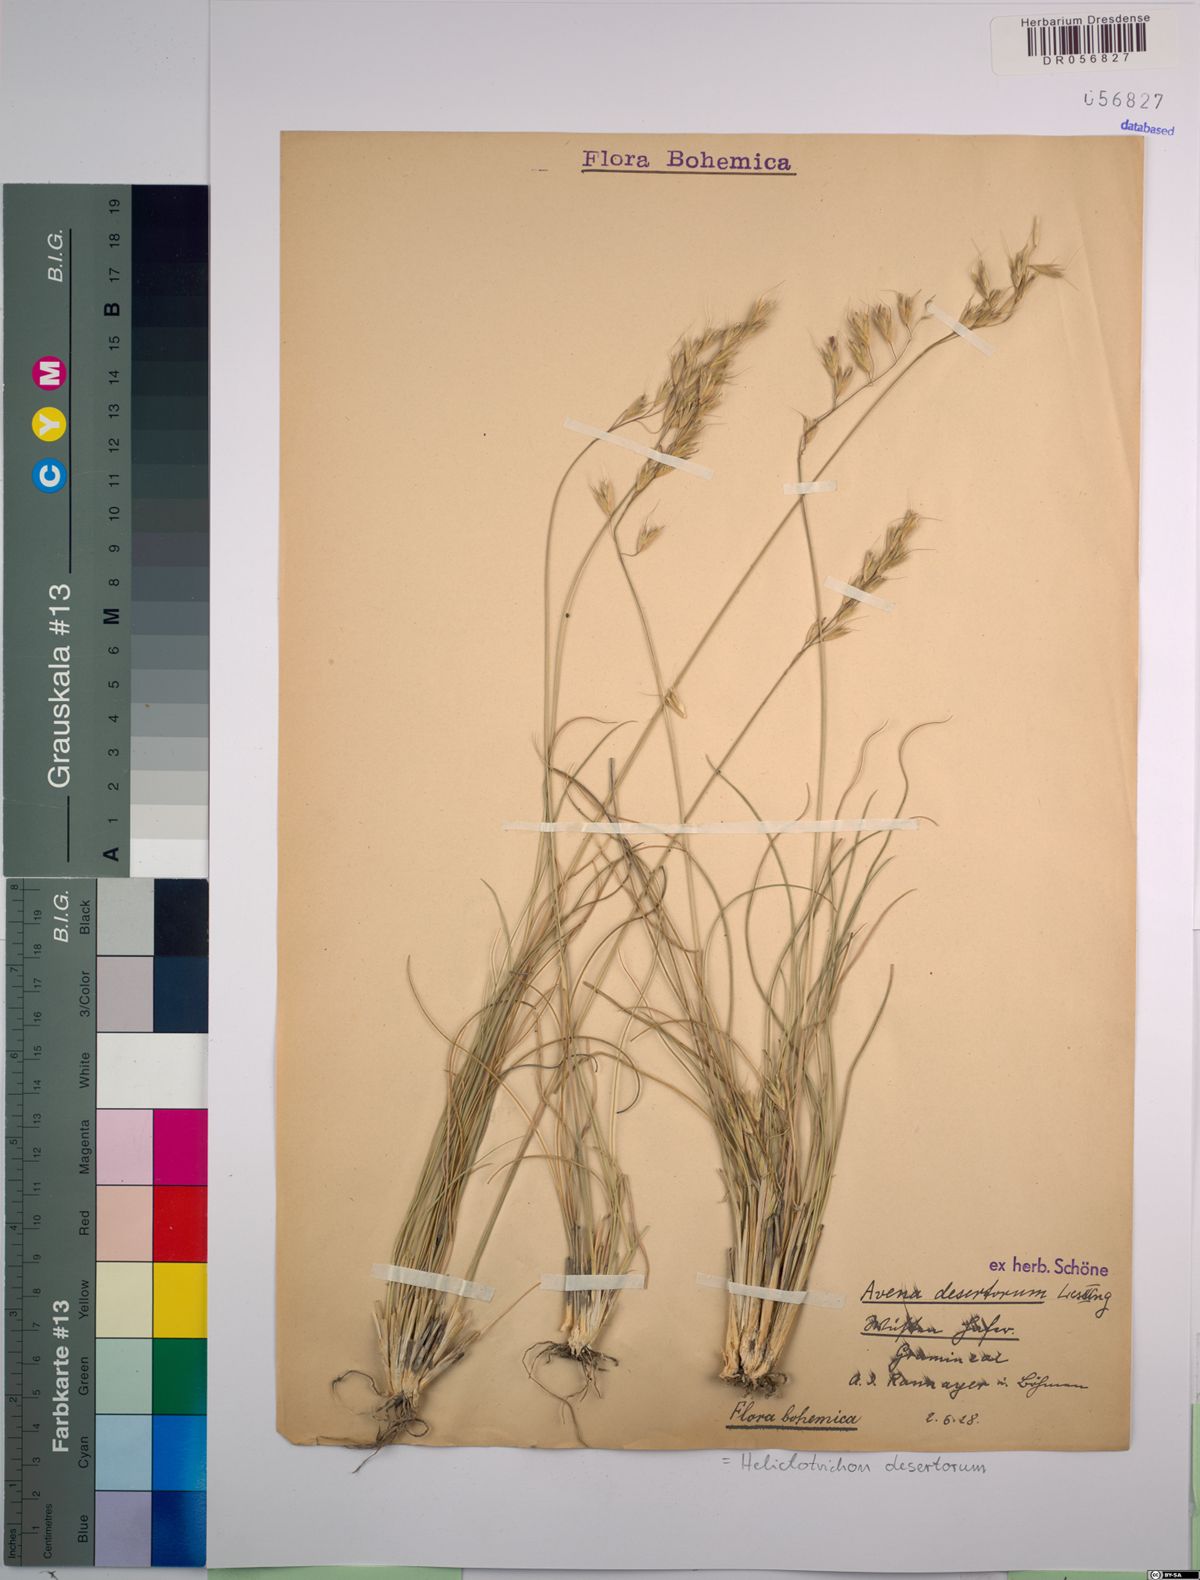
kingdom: Plantae
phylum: Tracheophyta
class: Liliopsida
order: Poales
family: Poaceae
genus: Helictotrichon
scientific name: Helictotrichon desertorum
